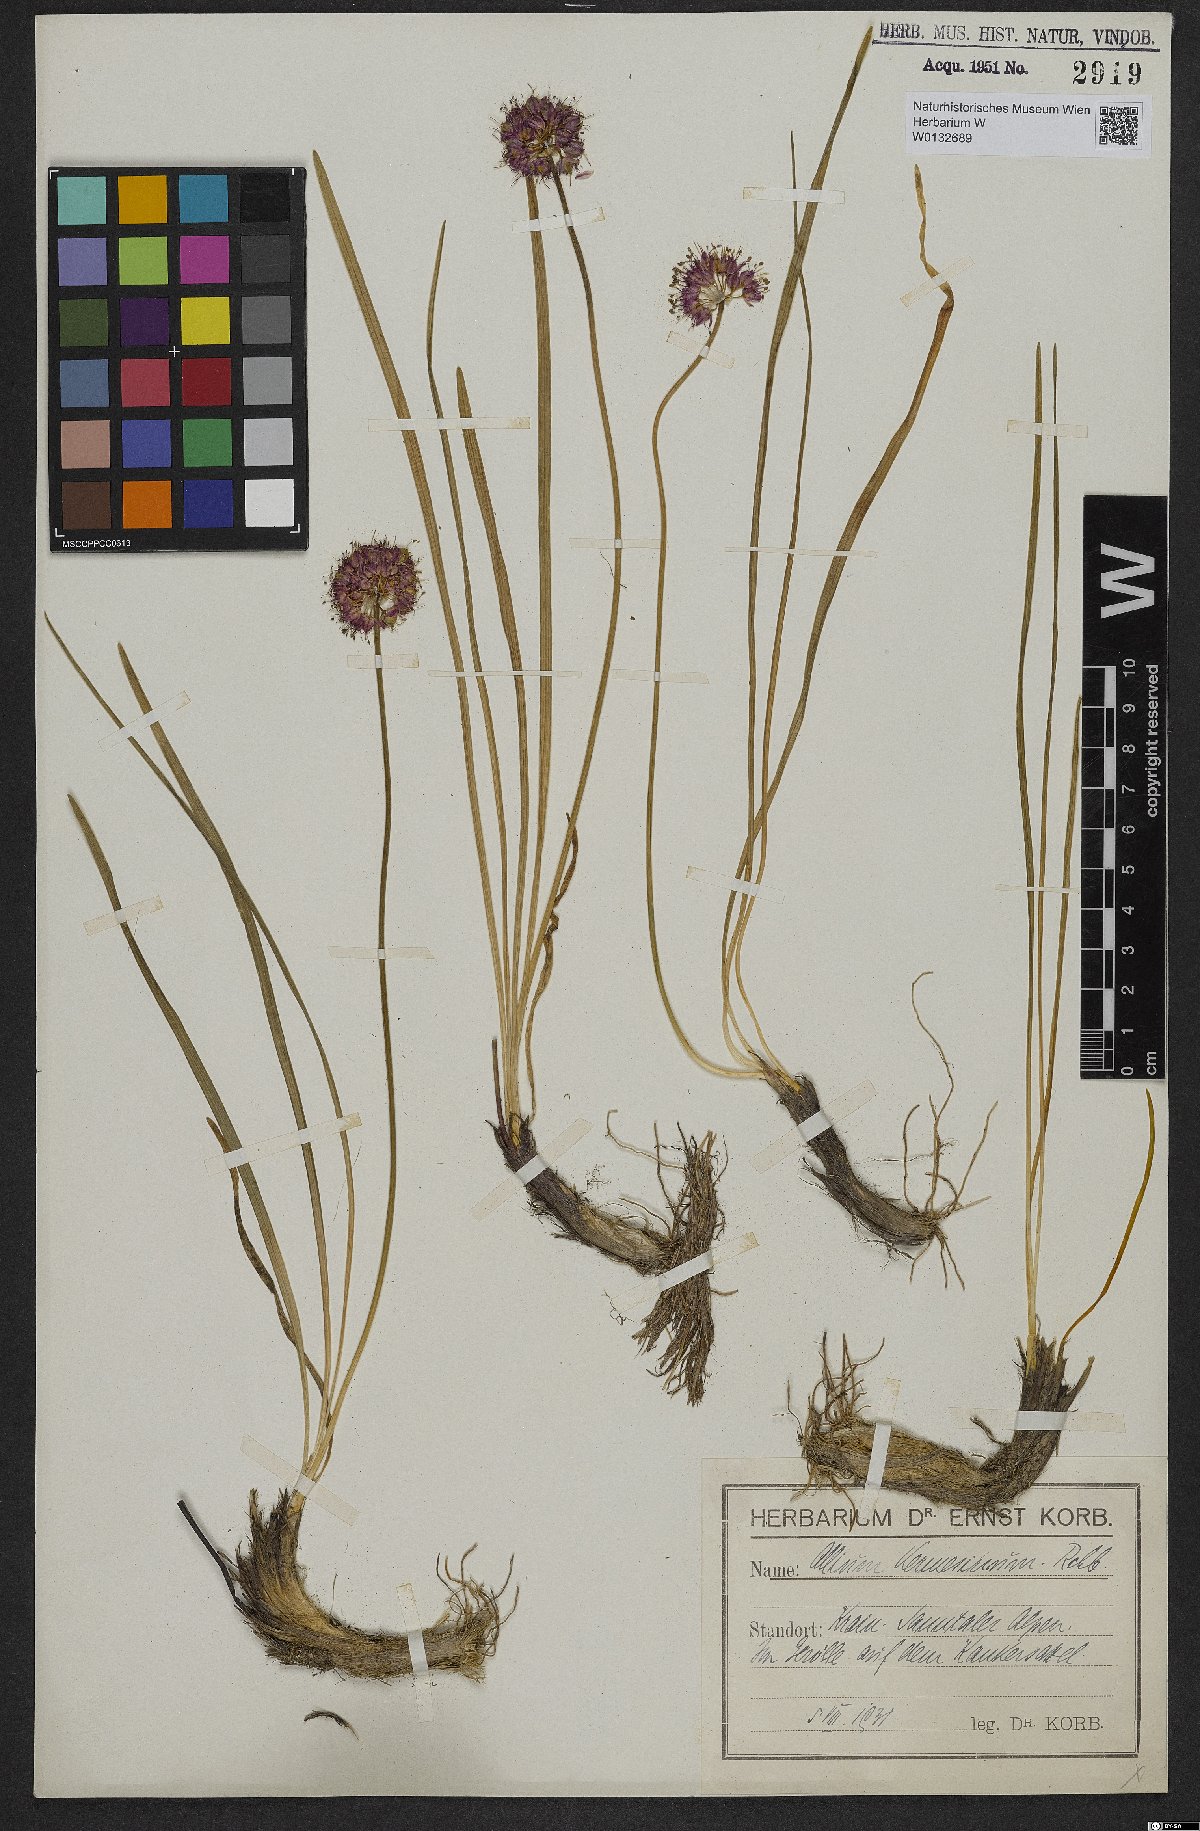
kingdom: Plantae
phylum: Tracheophyta
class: Liliopsida
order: Asparagales
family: Amaryllidaceae
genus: Allium
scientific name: Allium kermesinum
